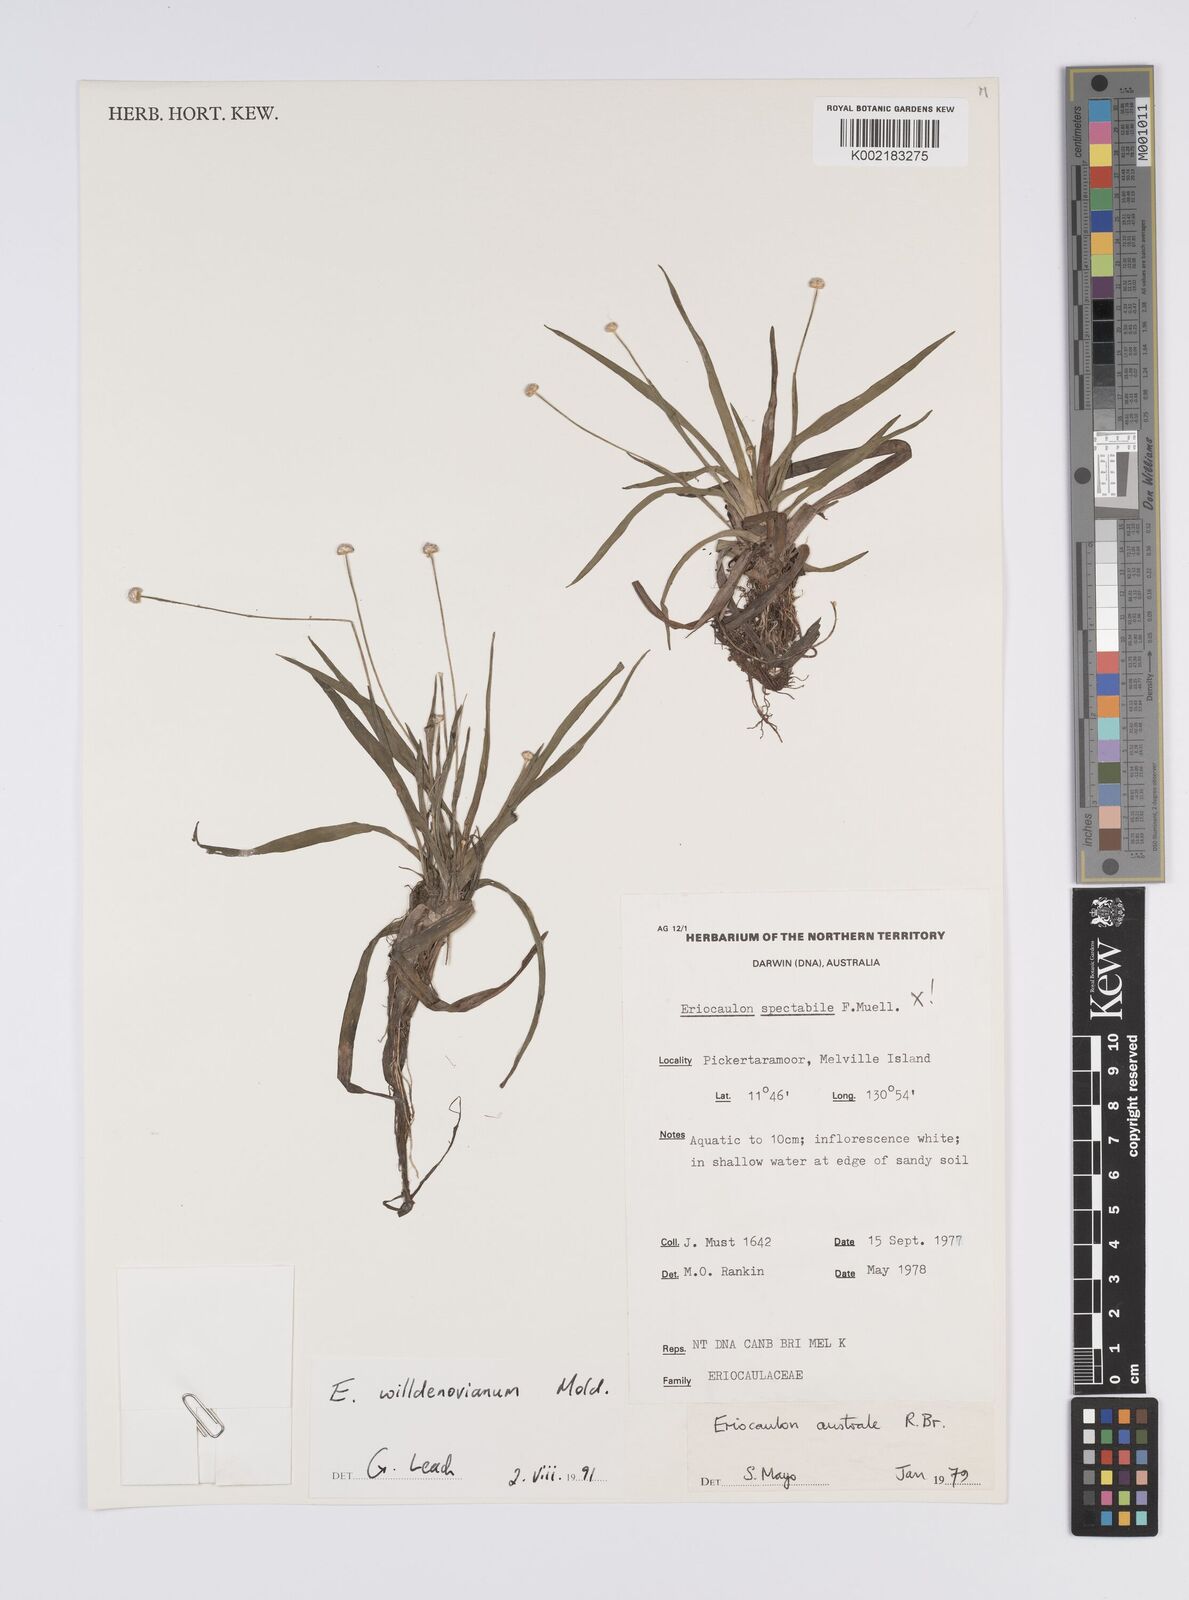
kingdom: Plantae
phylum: Tracheophyta
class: Liliopsida
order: Poales
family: Eriocaulaceae
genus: Eriocaulon
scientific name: Eriocaulon willdenovianum
